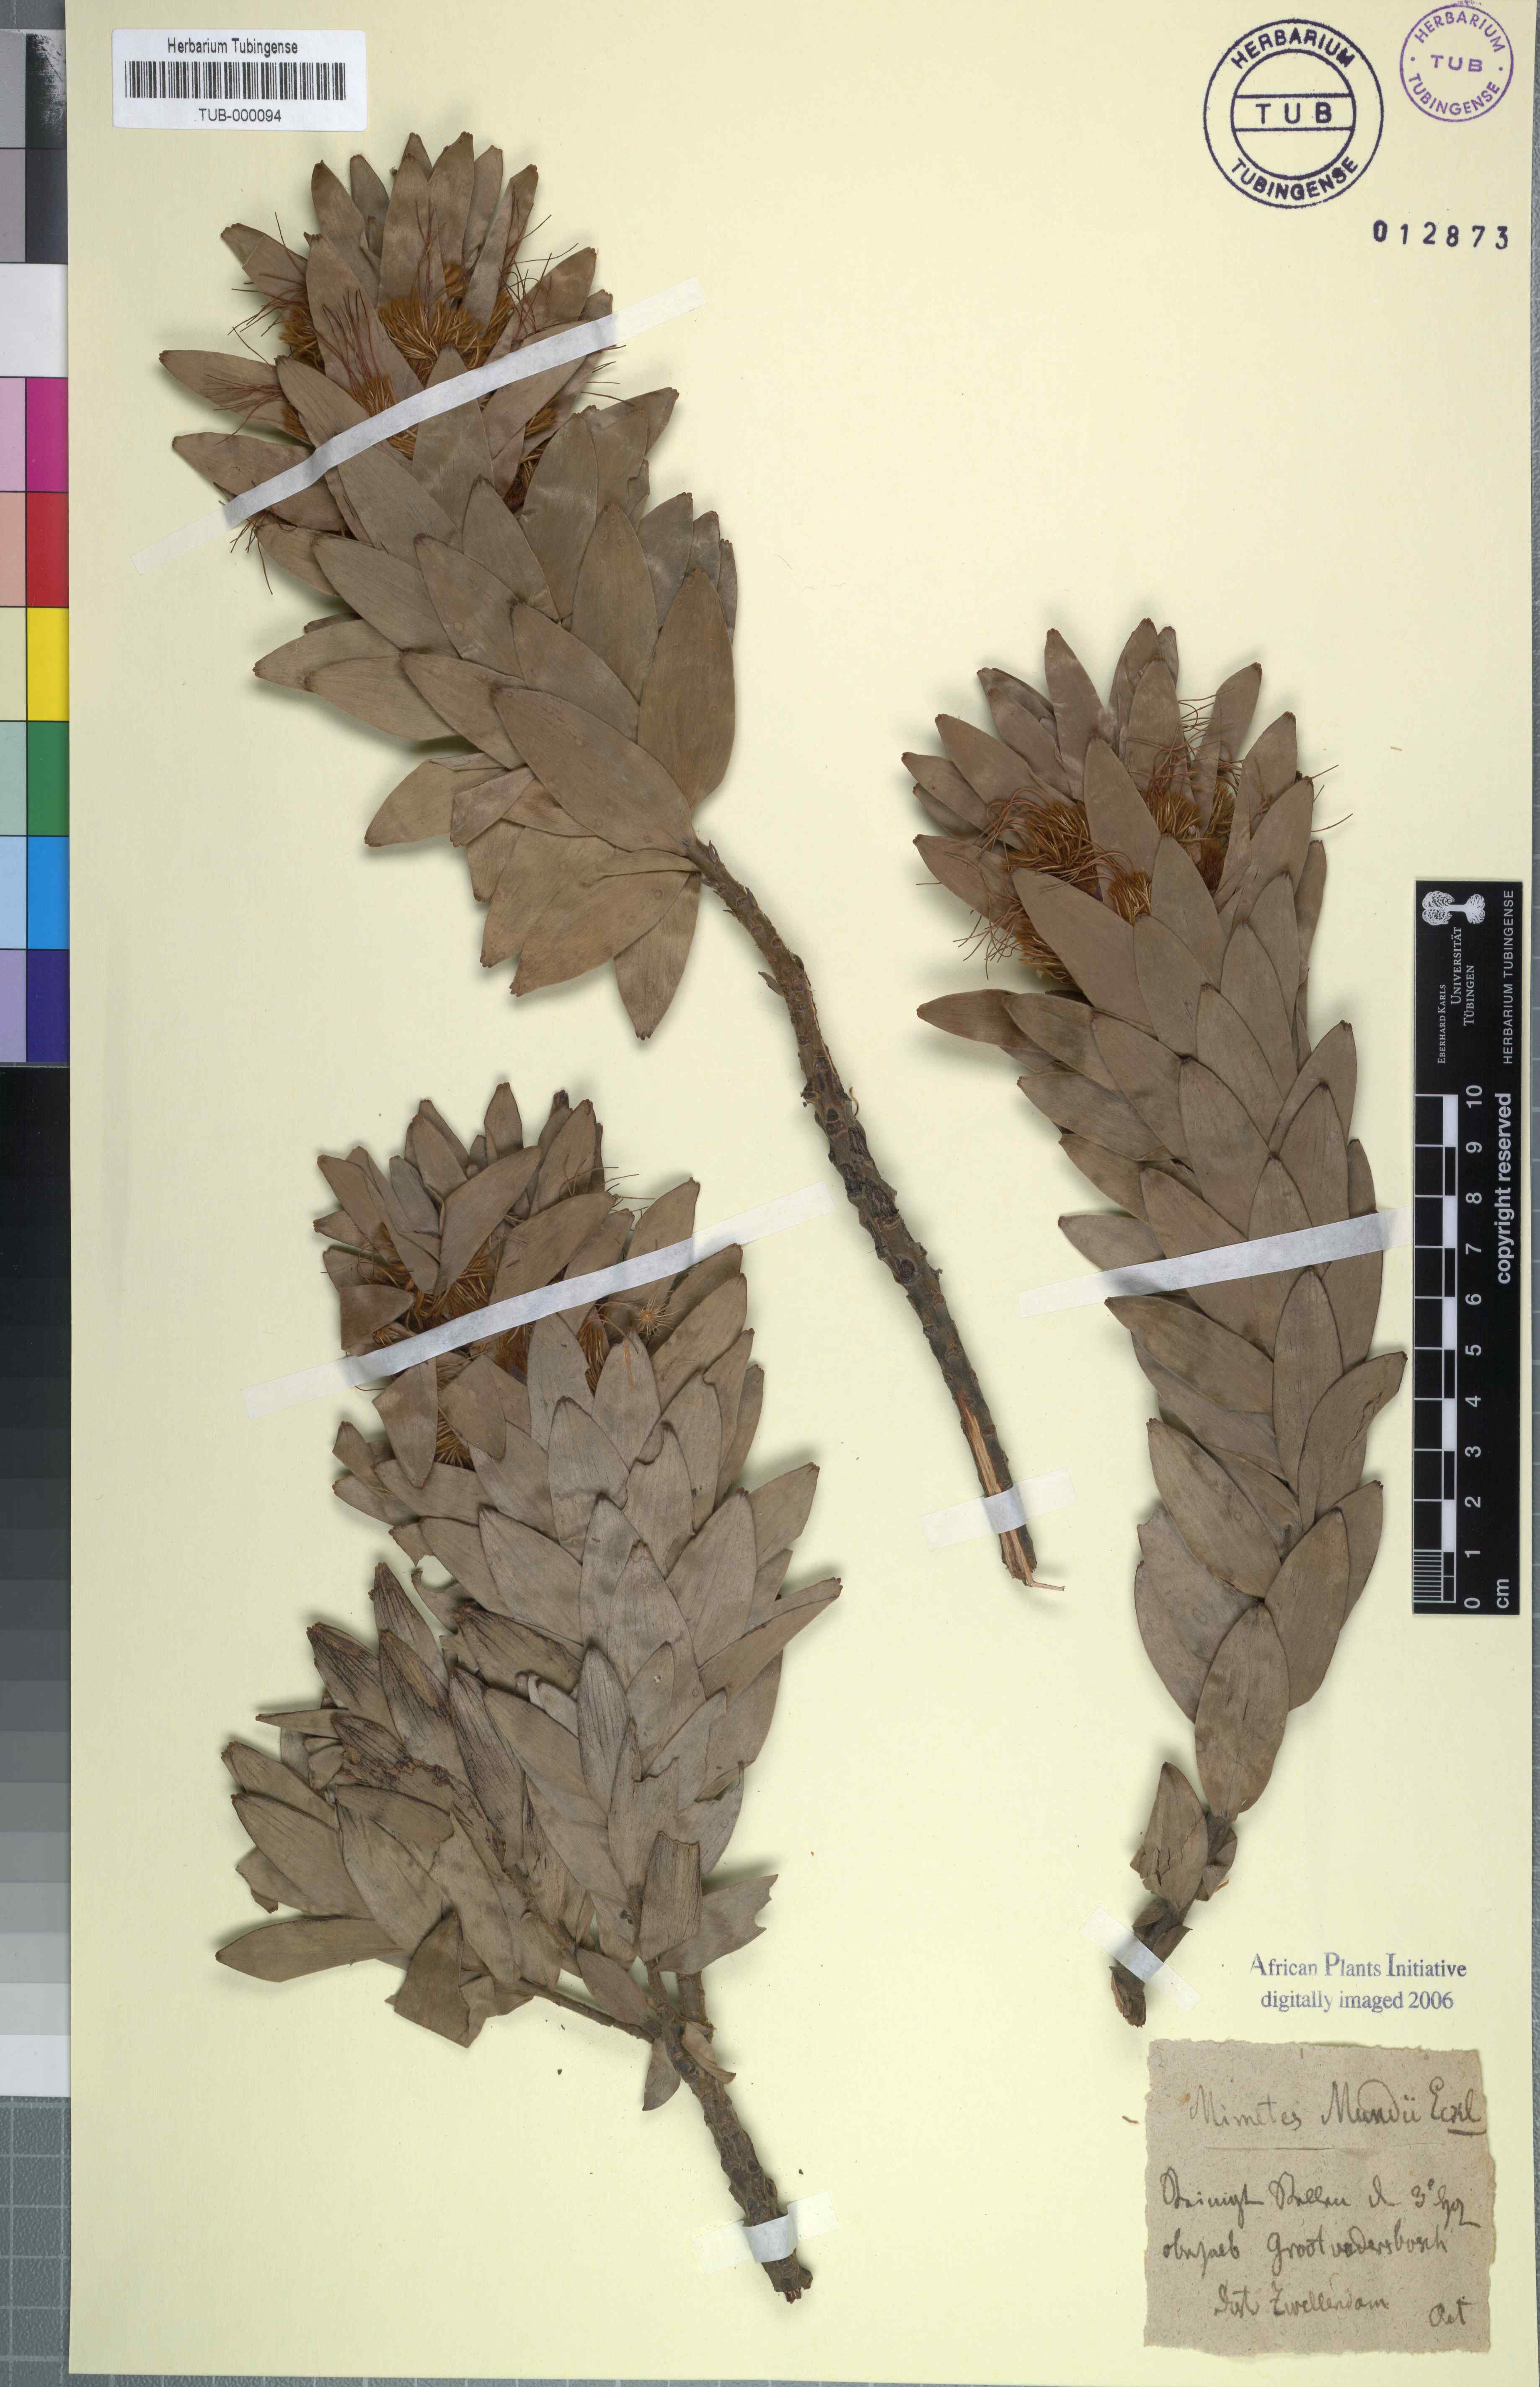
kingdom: Plantae
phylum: Tracheophyta
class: Magnoliopsida
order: Proteales
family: Proteaceae
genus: Mimetes
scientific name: Mimetes
